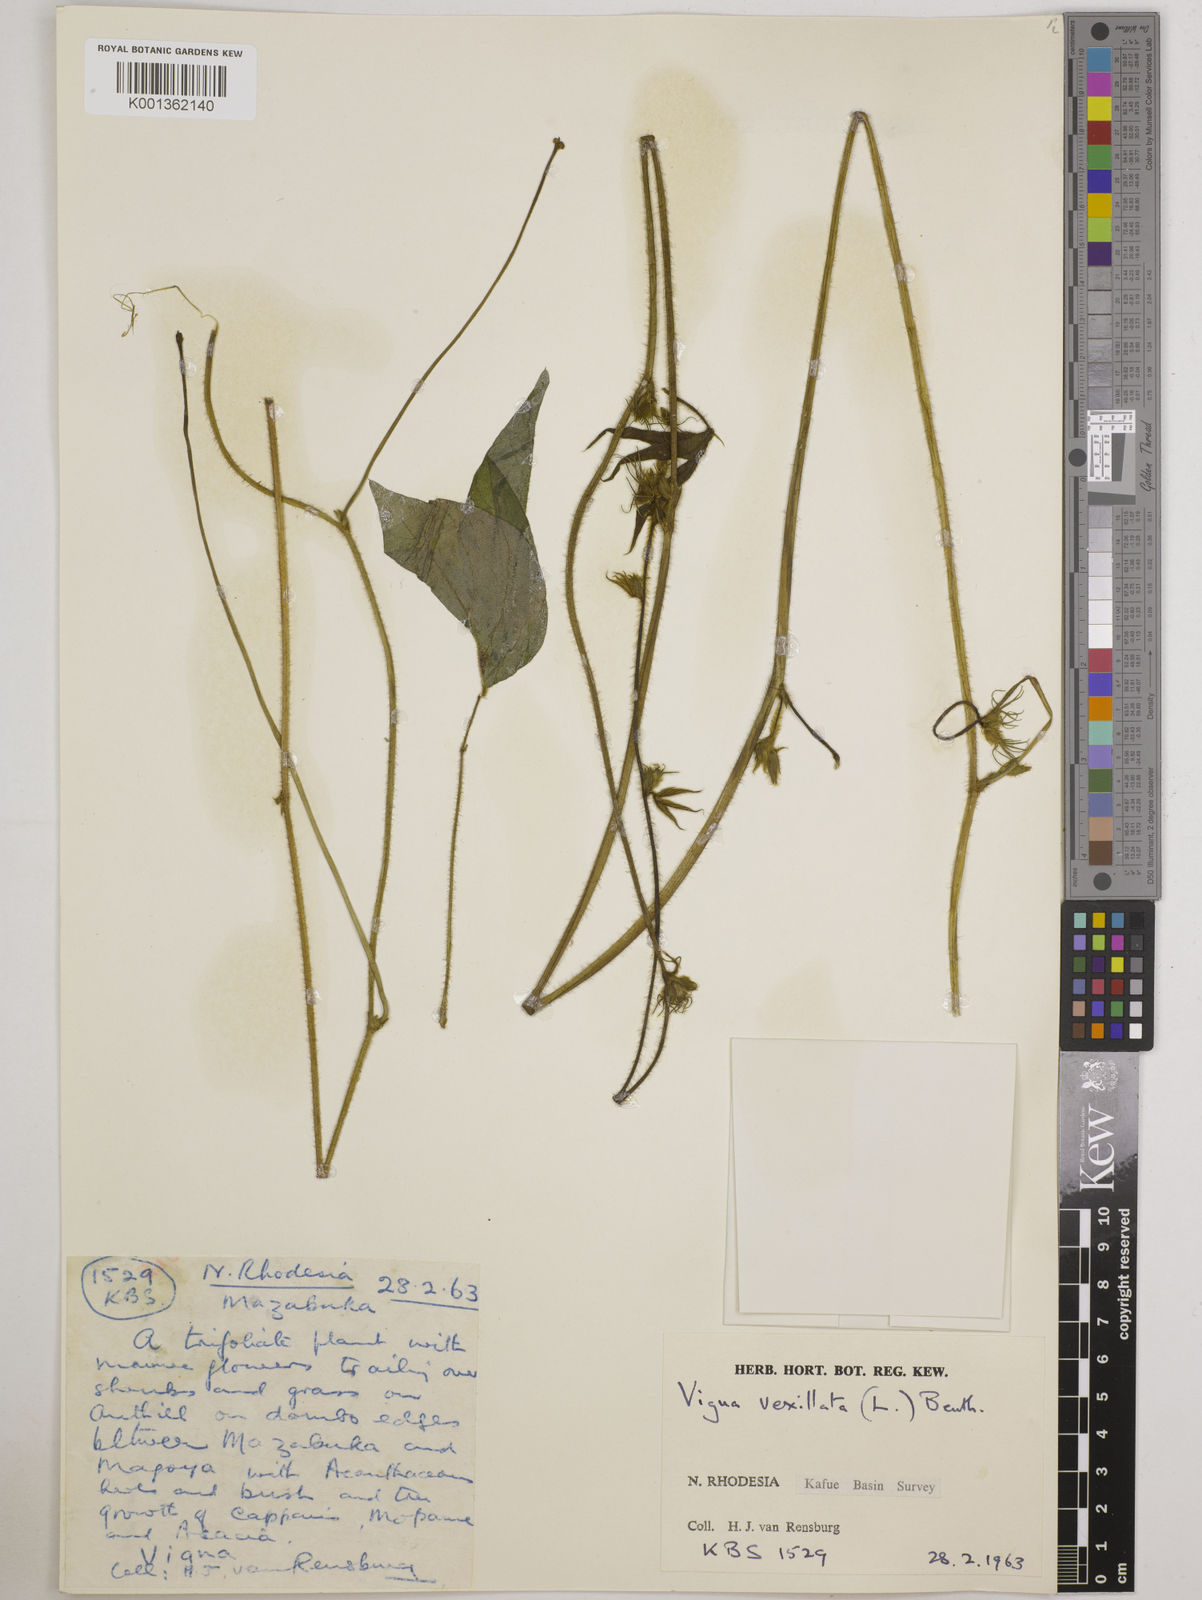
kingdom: Plantae
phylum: Tracheophyta
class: Magnoliopsida
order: Fabales
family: Fabaceae
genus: Vigna
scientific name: Vigna vexillata
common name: Zombi pea
